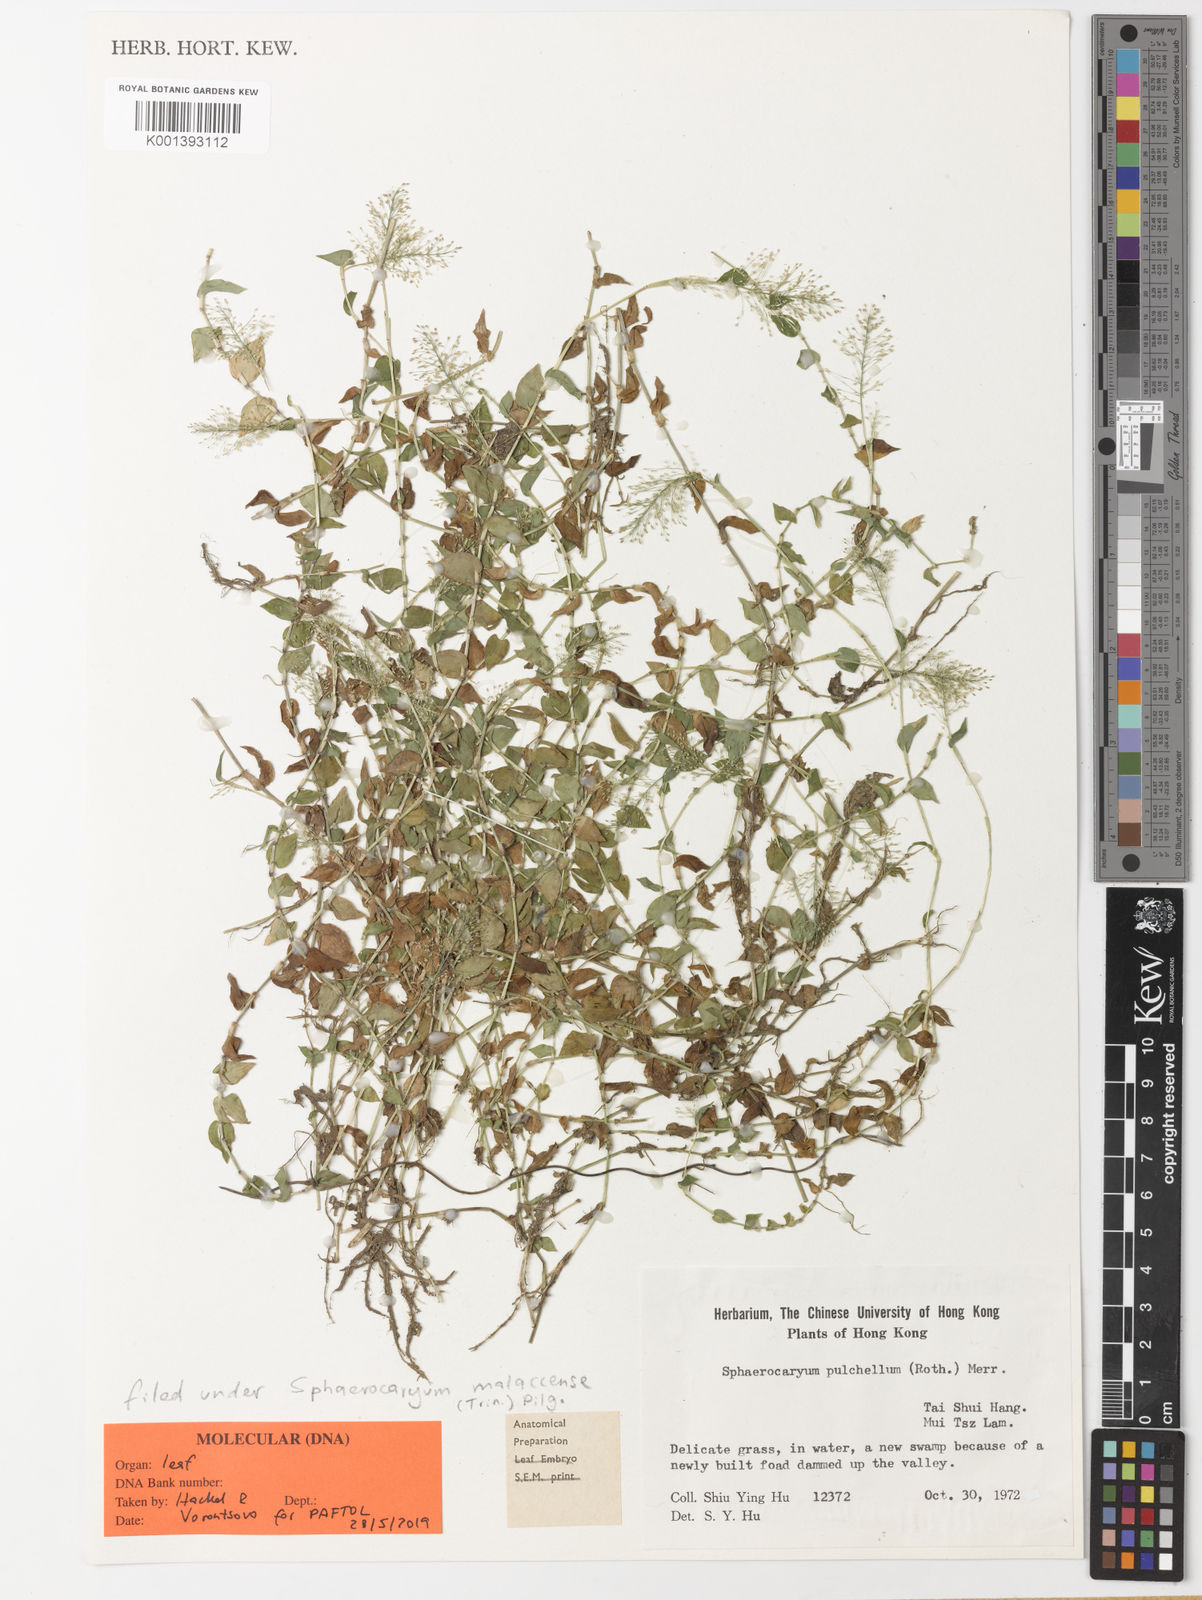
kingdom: Plantae
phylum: Tracheophyta
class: Liliopsida
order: Poales
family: Poaceae
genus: Sphaerocaryum
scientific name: Sphaerocaryum malaccense
